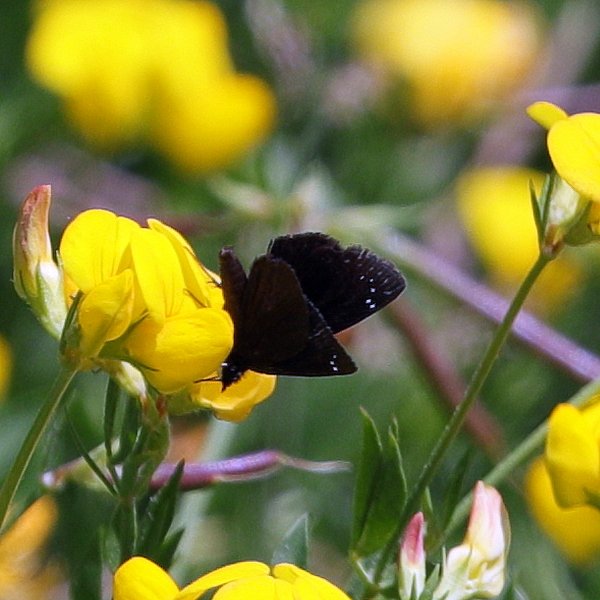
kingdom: Animalia
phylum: Arthropoda
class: Insecta
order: Lepidoptera
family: Hesperiidae
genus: Pholisora
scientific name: Pholisora catullus
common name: Common Sootywing
